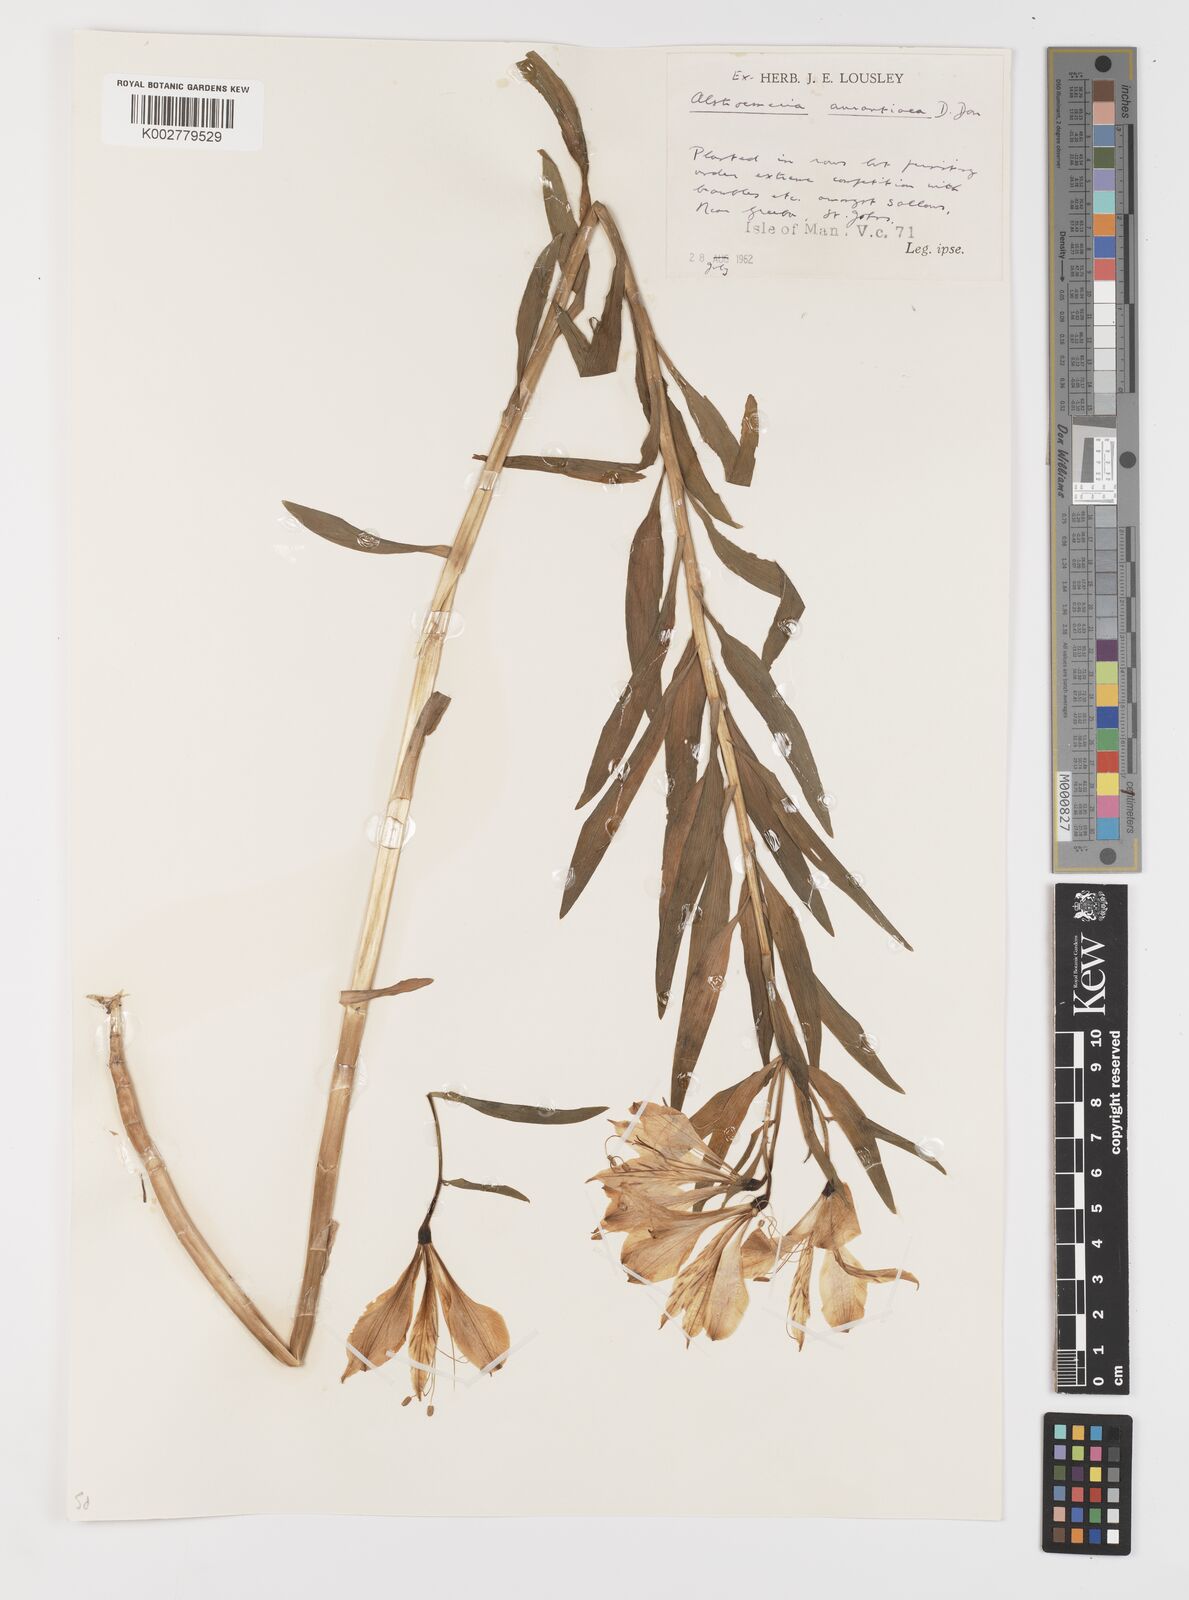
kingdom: Plantae
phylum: Tracheophyta
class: Liliopsida
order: Liliales
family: Alstroemeriaceae
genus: Alstroemeria
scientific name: Alstroemeria aurea
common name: Peruvian lily
